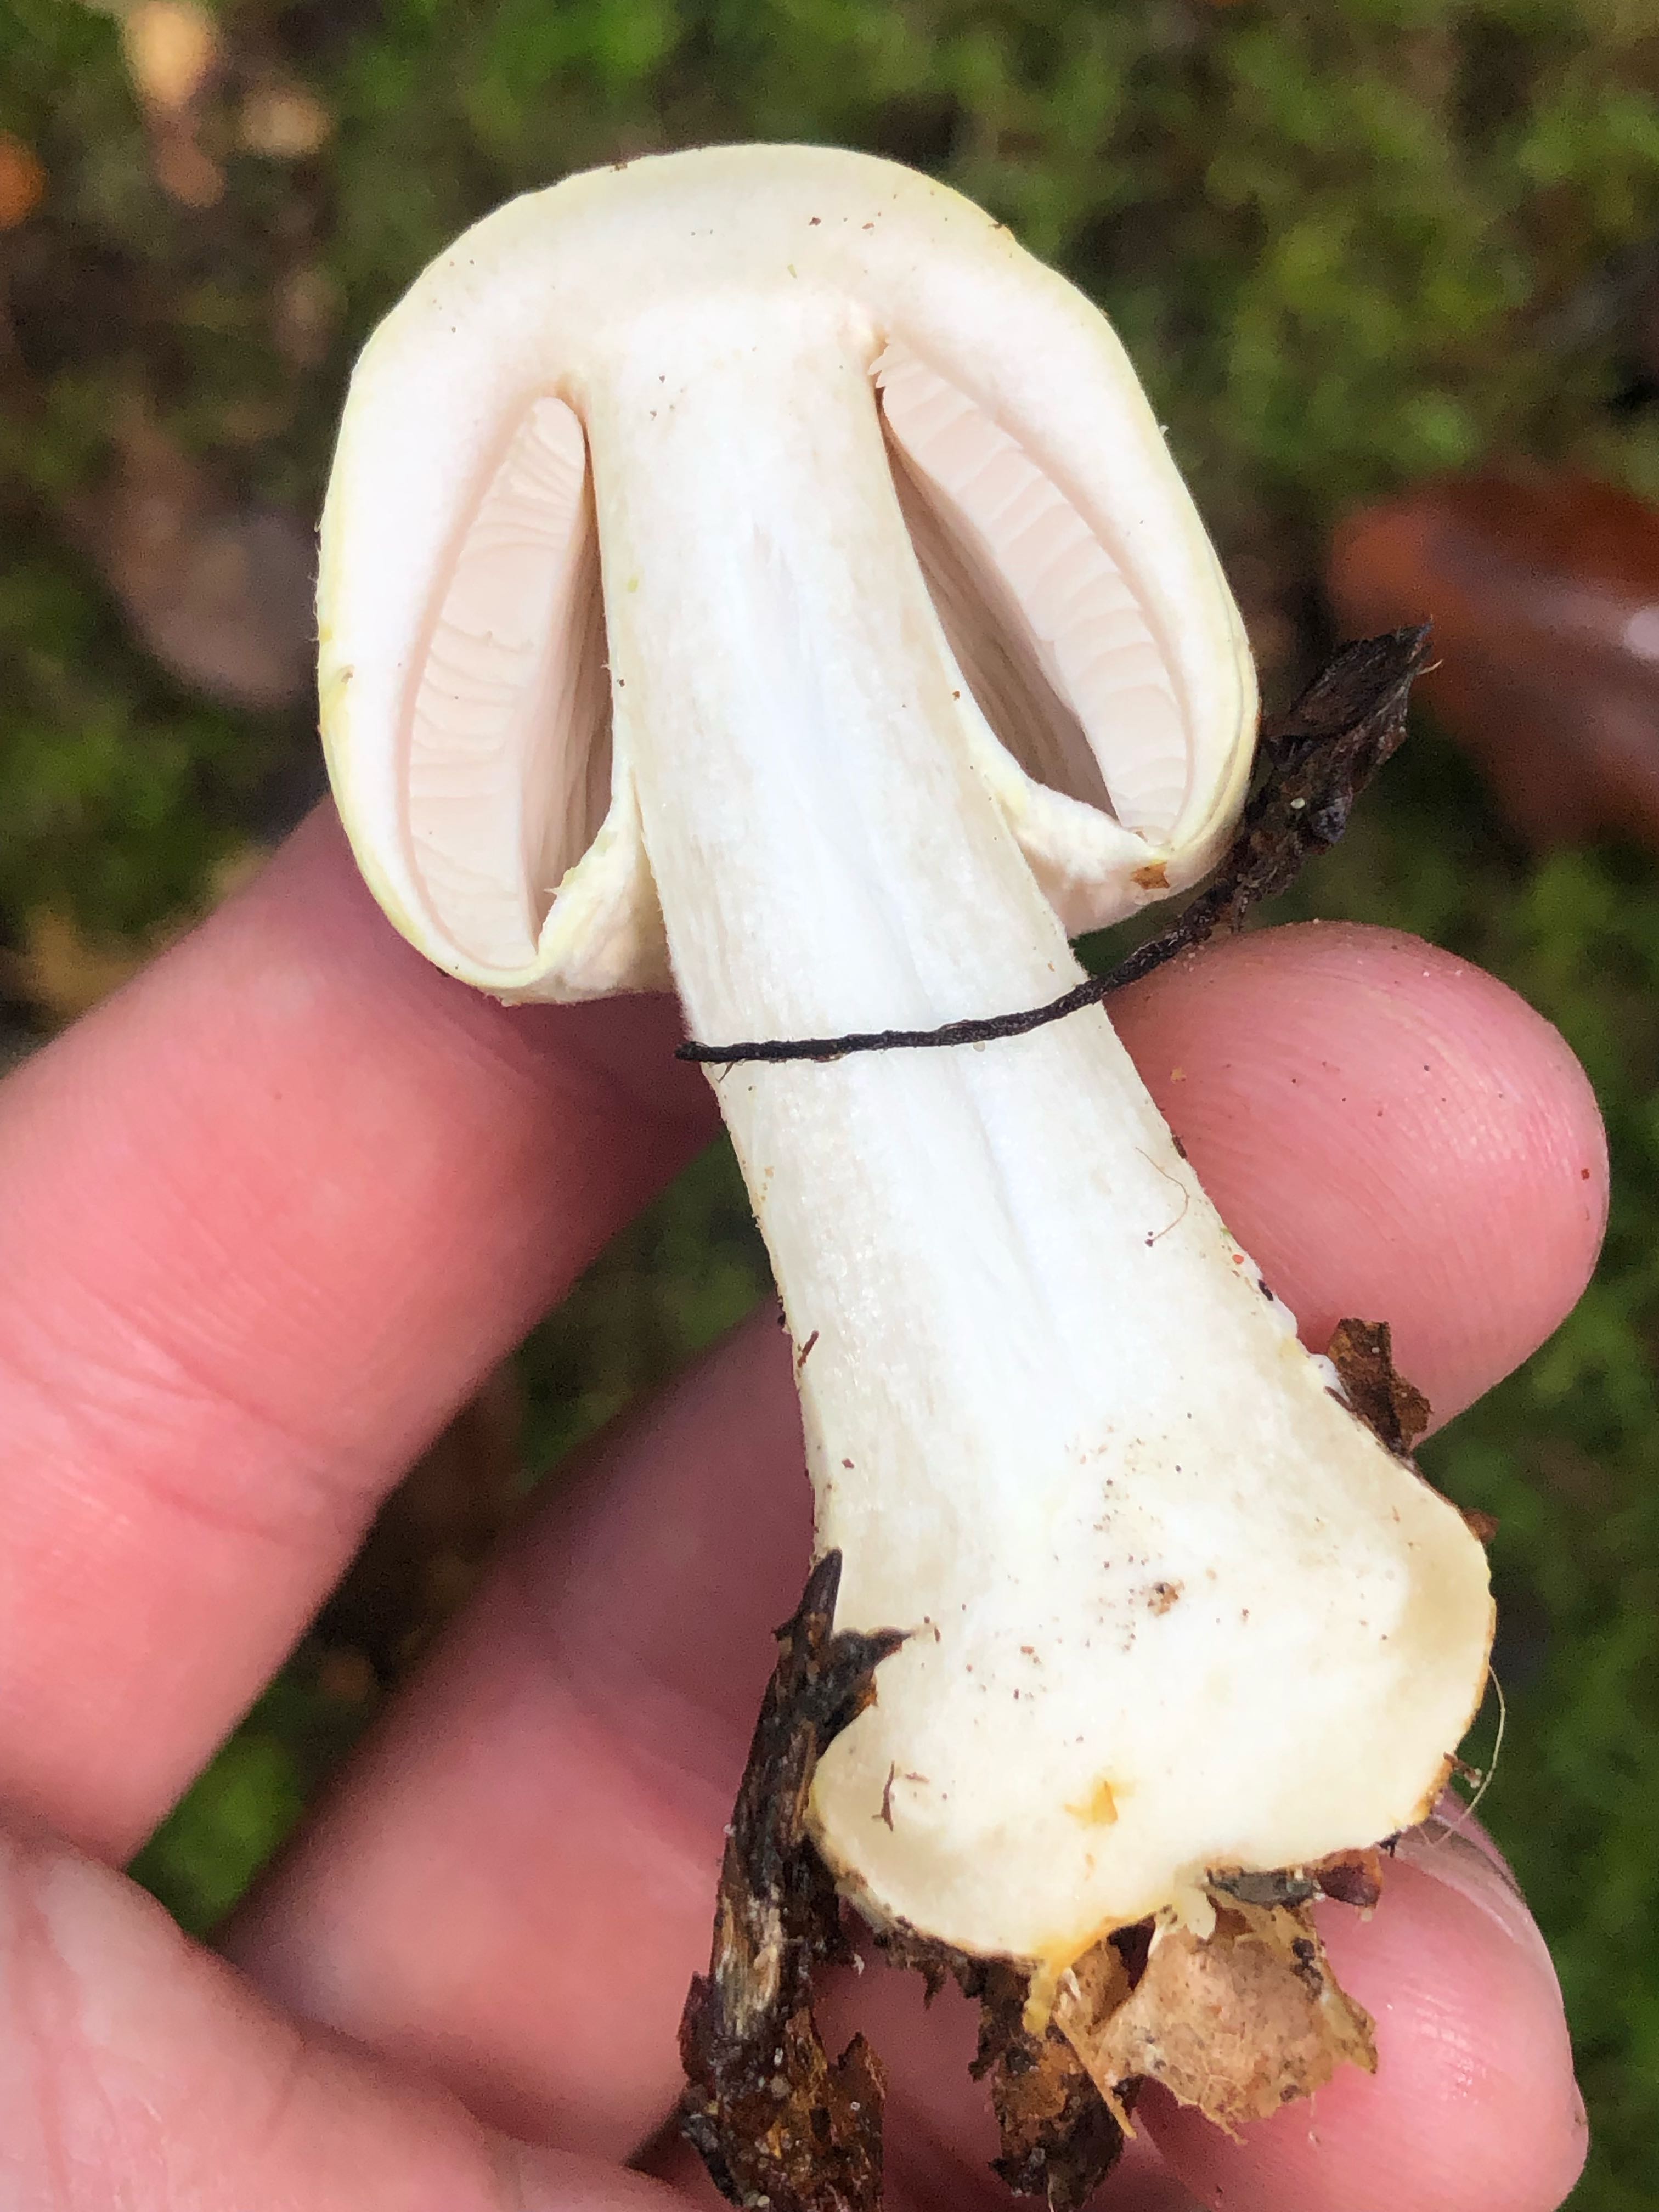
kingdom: Fungi
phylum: Basidiomycota
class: Agaricomycetes
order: Agaricales
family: Agaricaceae
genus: Agaricus
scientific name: Agaricus sylvicola
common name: gulhvid champignon
